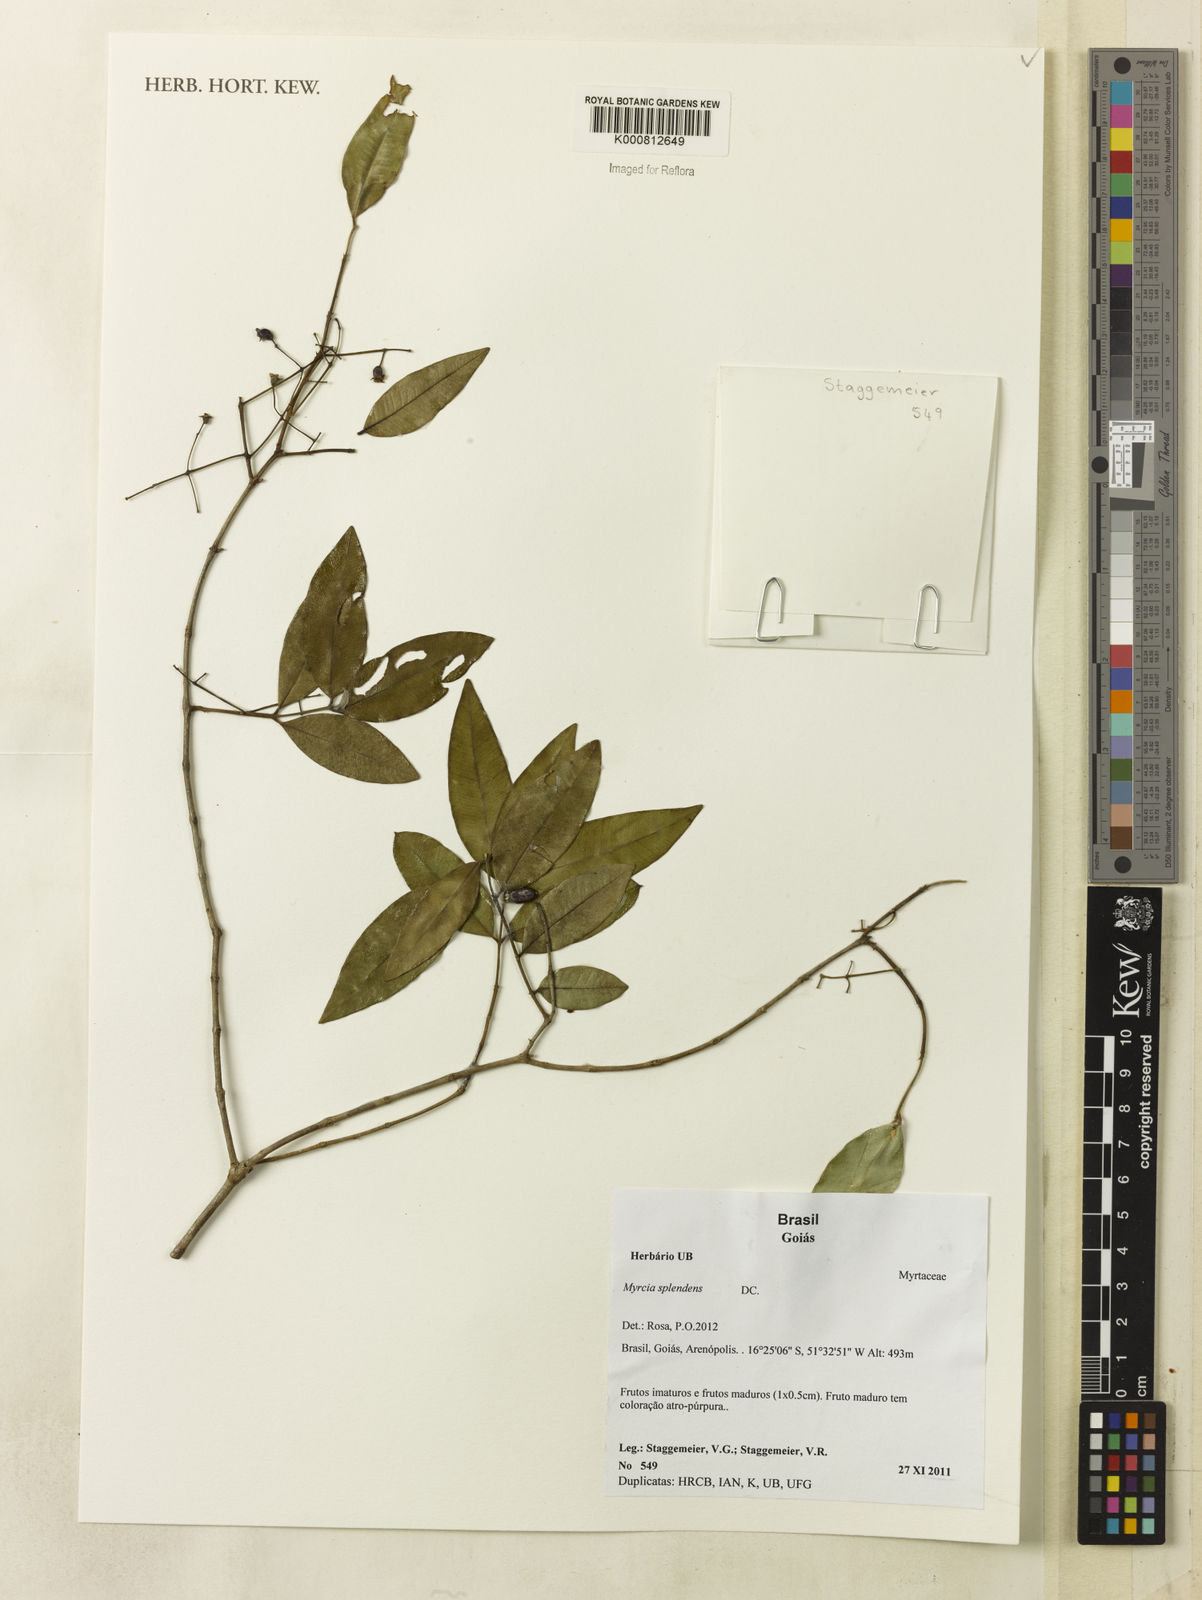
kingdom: Plantae
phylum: Tracheophyta
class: Magnoliopsida
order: Myrtales
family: Myrtaceae
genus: Myrcia
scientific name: Myrcia splendens
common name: Surinam cherry
